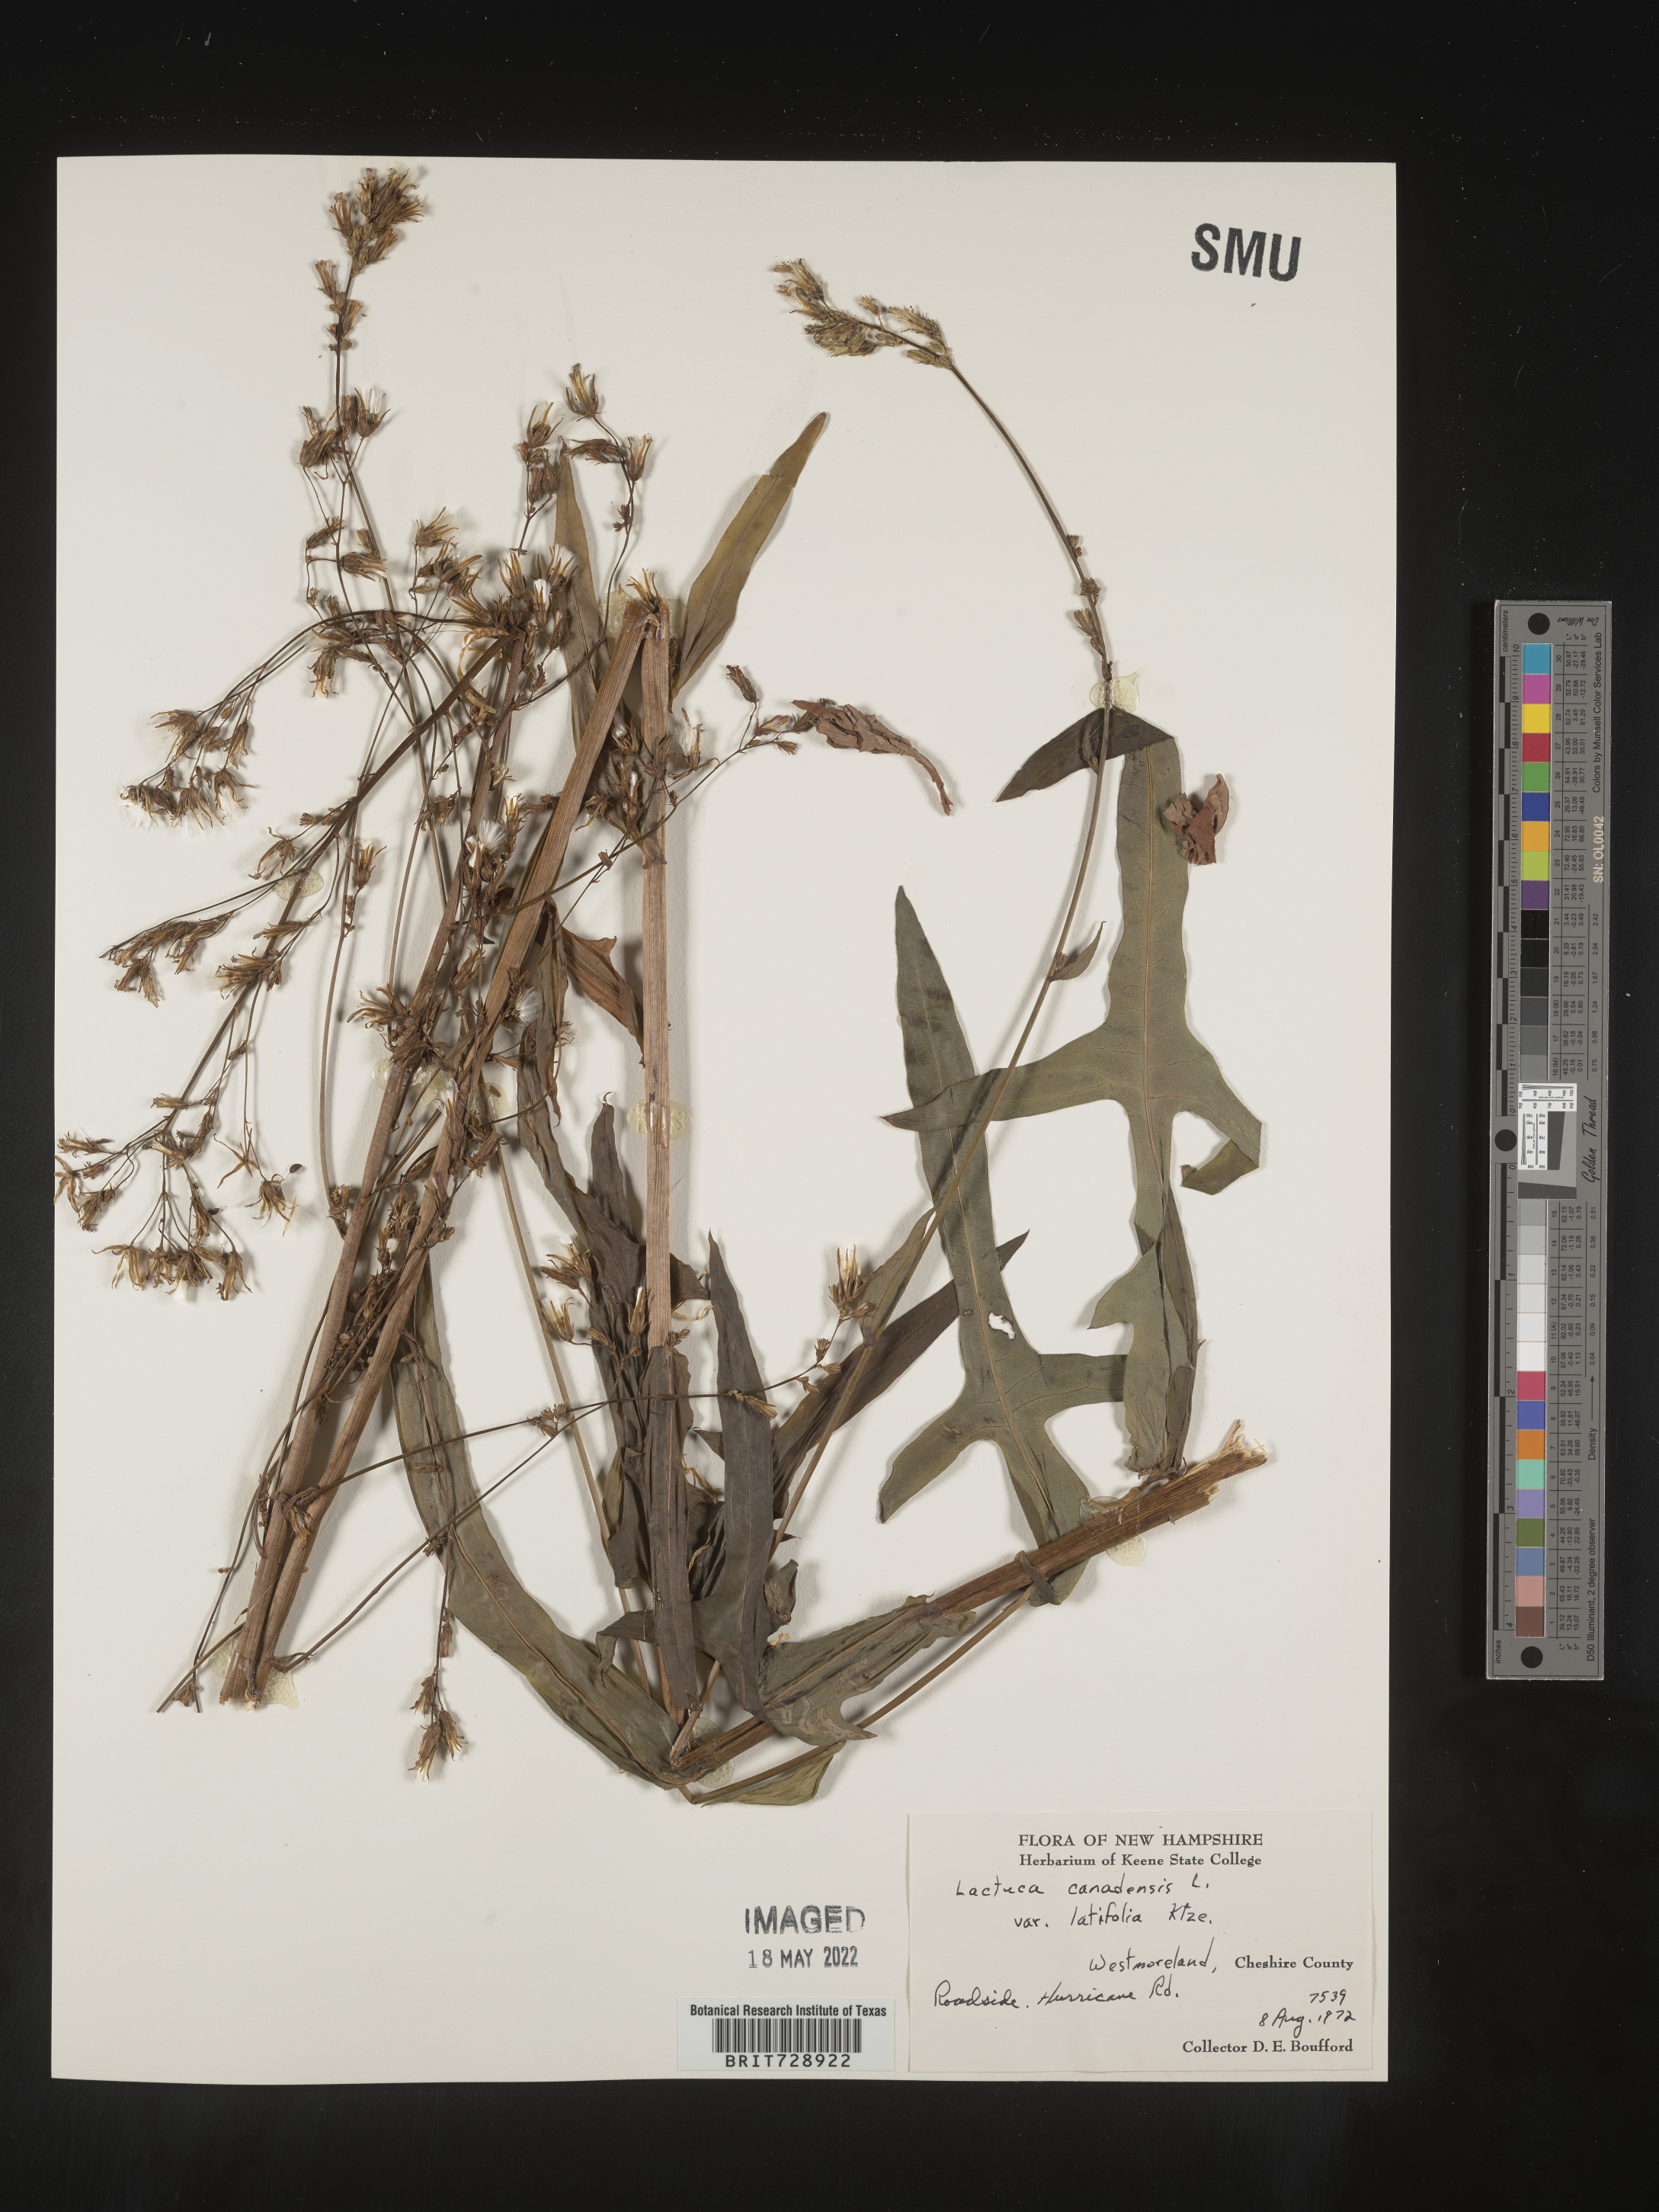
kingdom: Plantae
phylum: Tracheophyta
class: Magnoliopsida
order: Asterales
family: Asteraceae
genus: Lactuca
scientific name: Lactuca canadensis
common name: Canada lettuce
